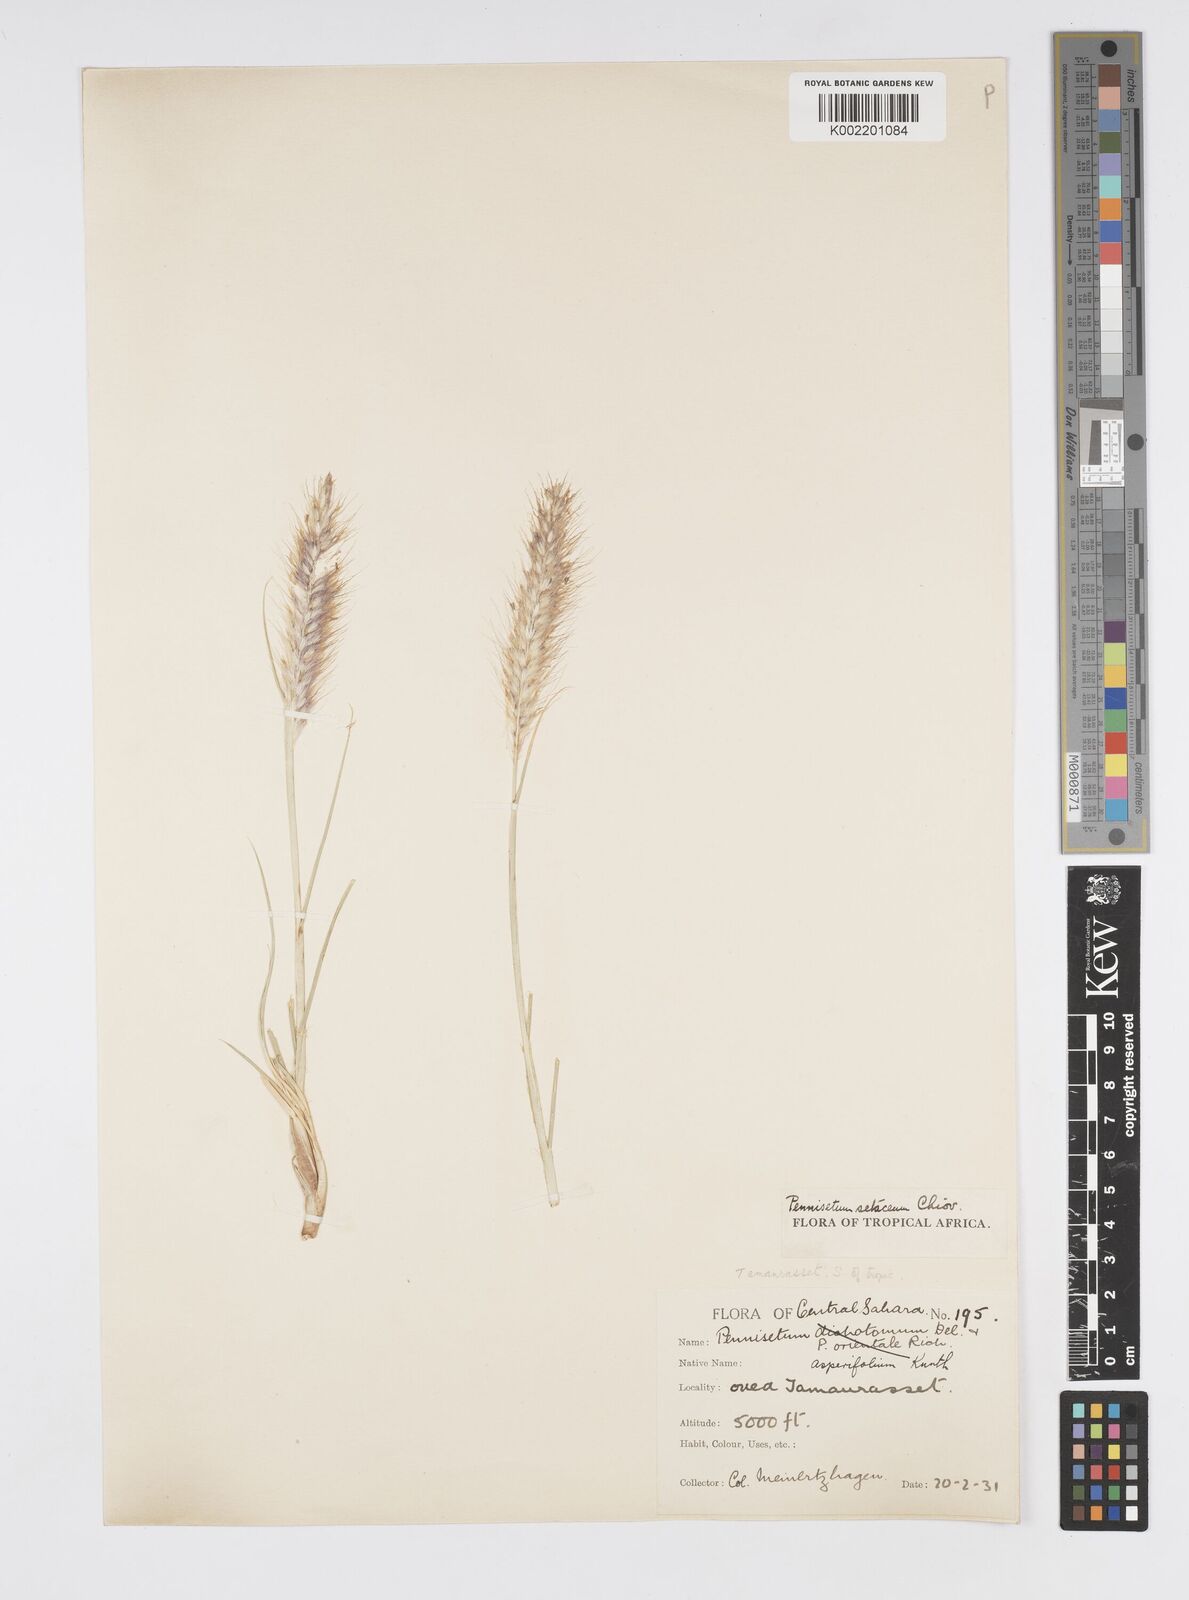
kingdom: Plantae
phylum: Tracheophyta
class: Liliopsida
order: Poales
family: Poaceae
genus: Cenchrus
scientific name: Cenchrus setaceus
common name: Crimson fountaingrass
